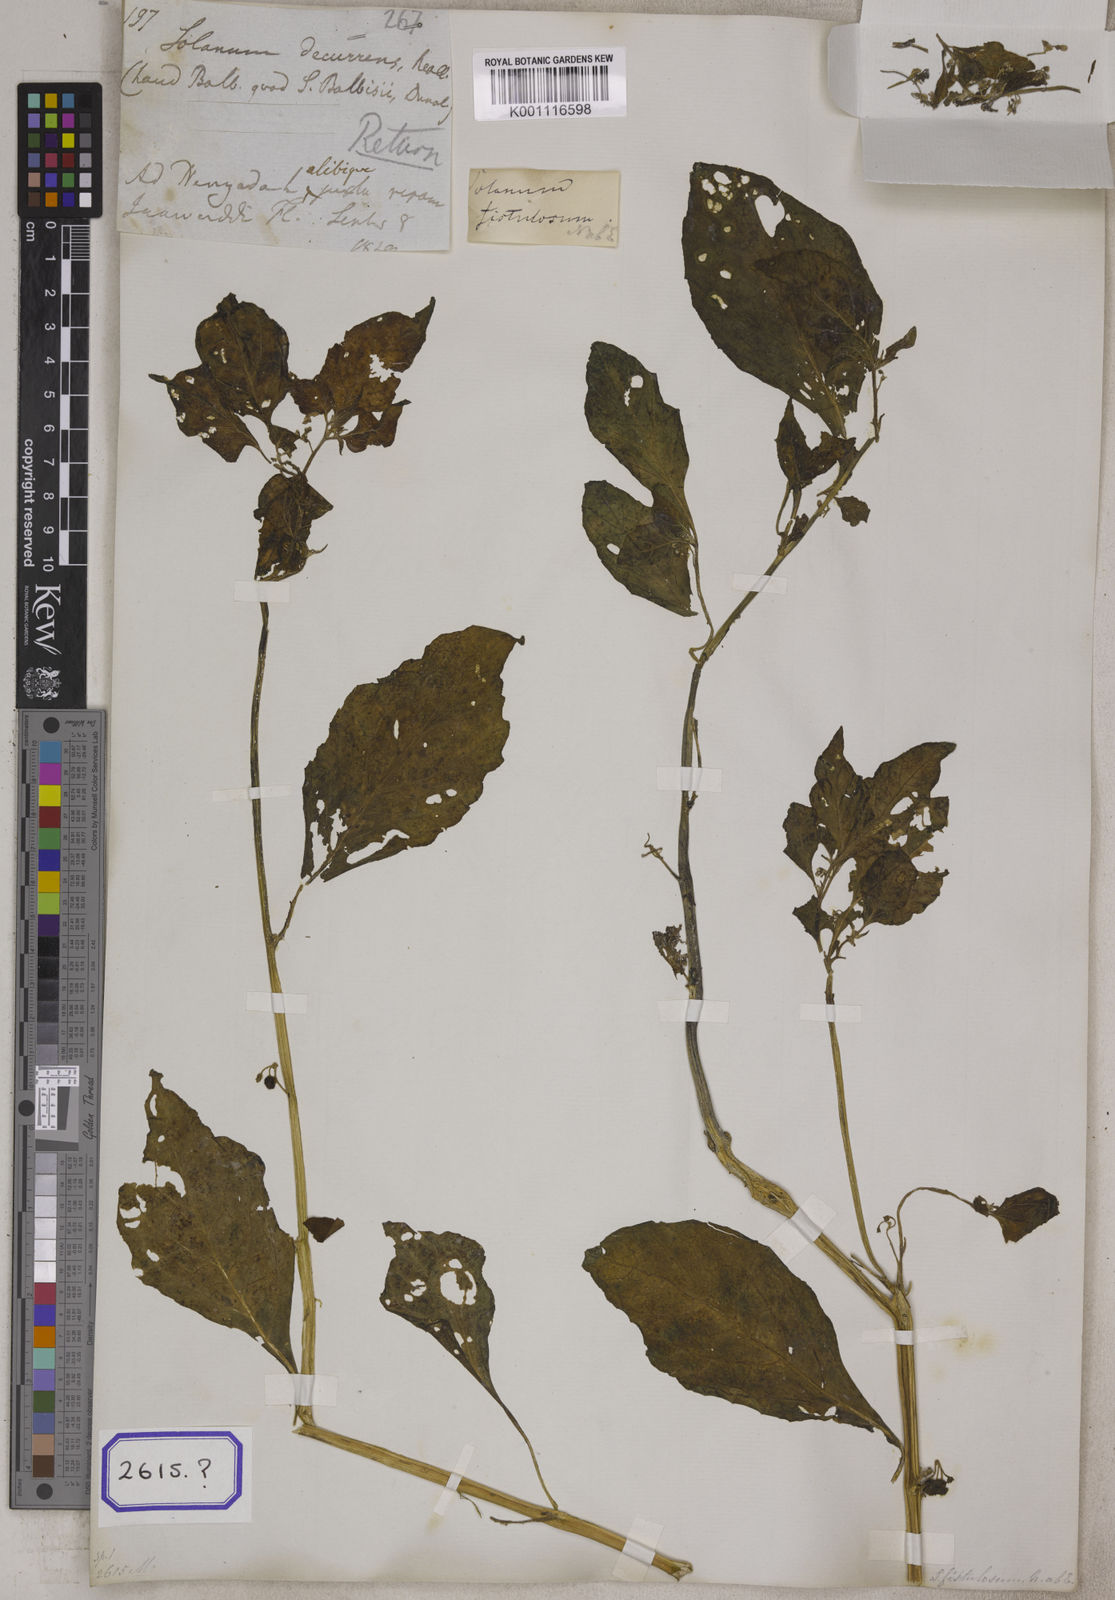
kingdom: Plantae
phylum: Tracheophyta
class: Magnoliopsida
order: Solanales
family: Solanaceae
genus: Solanum
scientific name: Solanum nigrum
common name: Black nightshade
